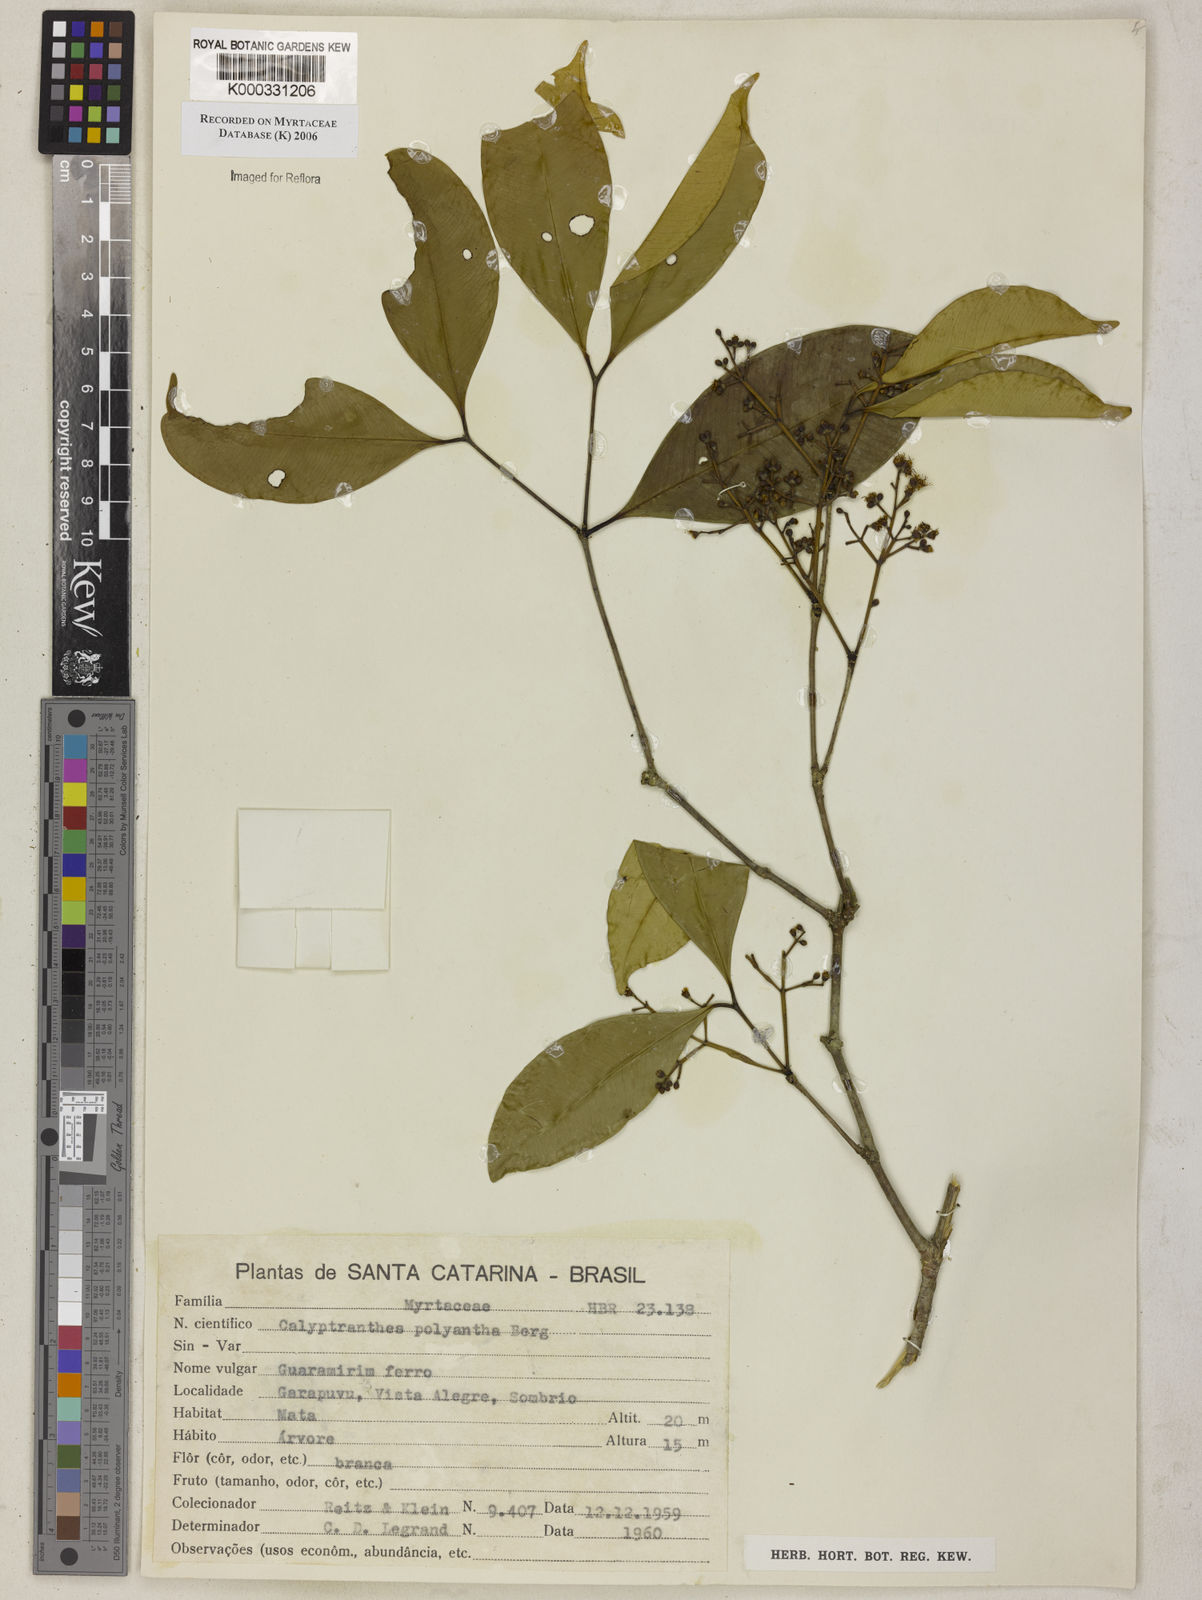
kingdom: Plantae
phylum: Tracheophyta
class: Magnoliopsida
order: Myrtales
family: Myrtaceae
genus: Myrcia
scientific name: Myrcia neolucida
